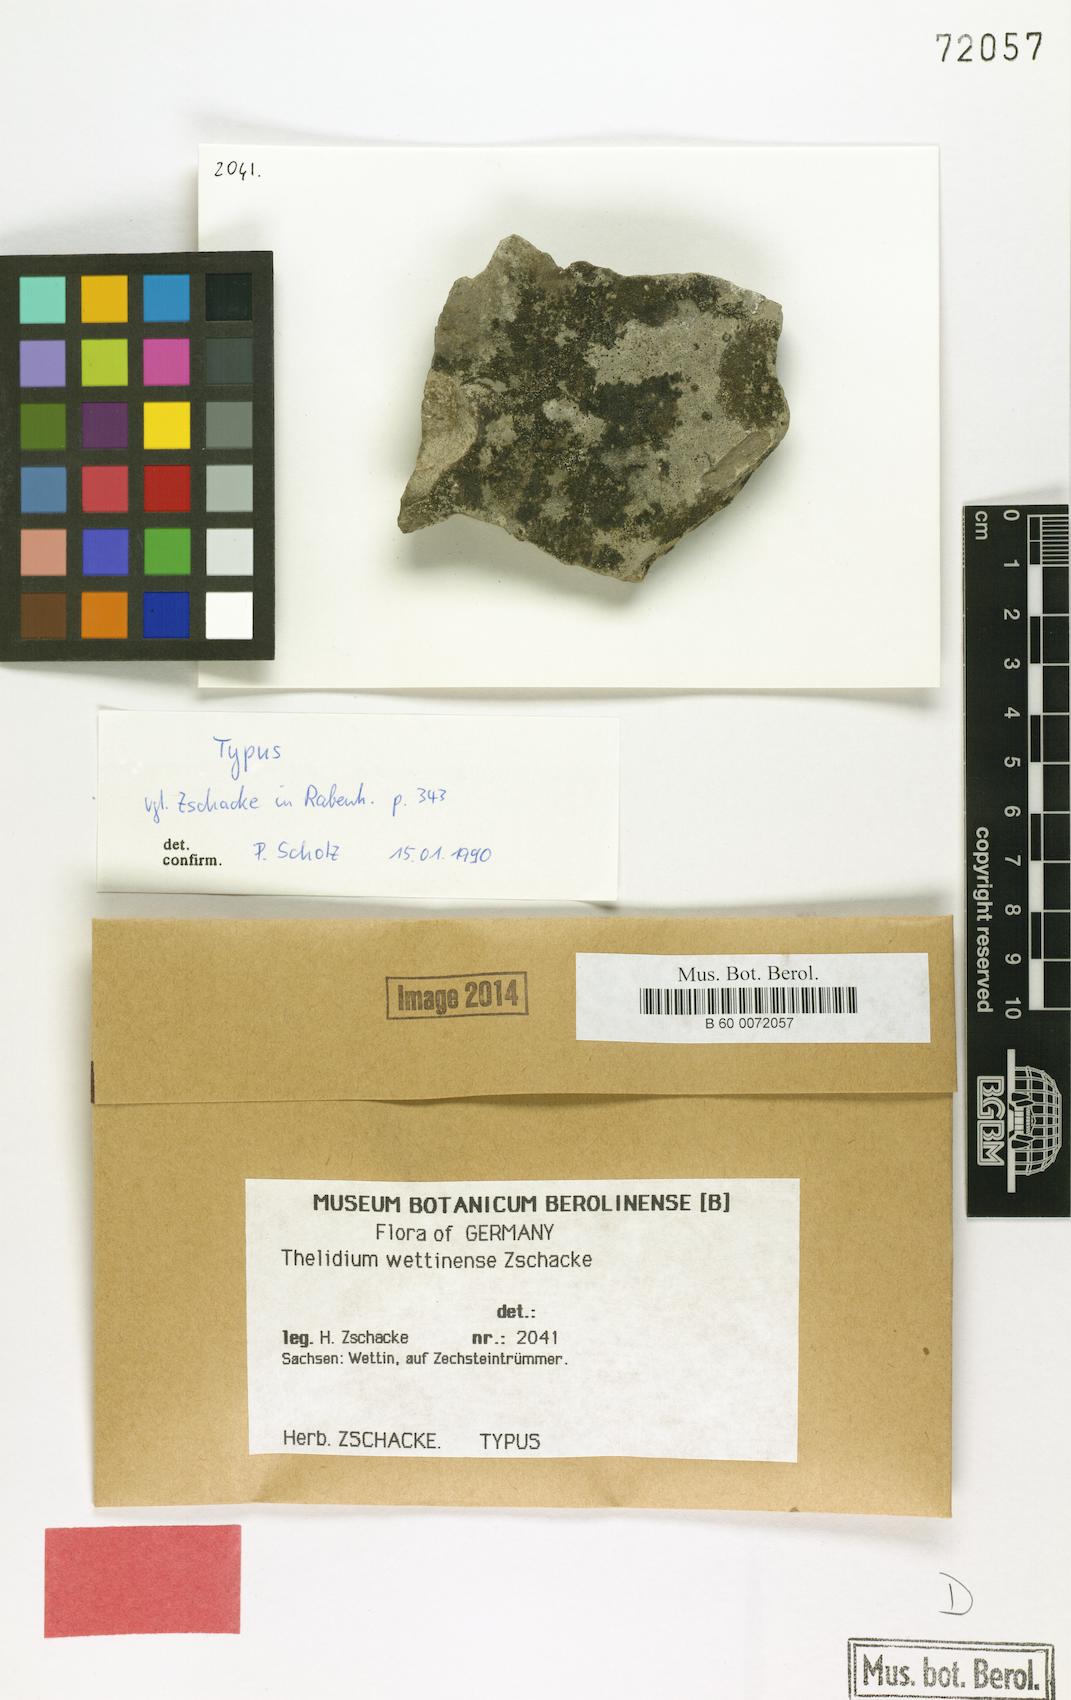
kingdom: Fungi
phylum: Ascomycota
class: Eurotiomycetes
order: Verrucariales
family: Verrucariaceae
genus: Thelidium
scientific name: Thelidium
